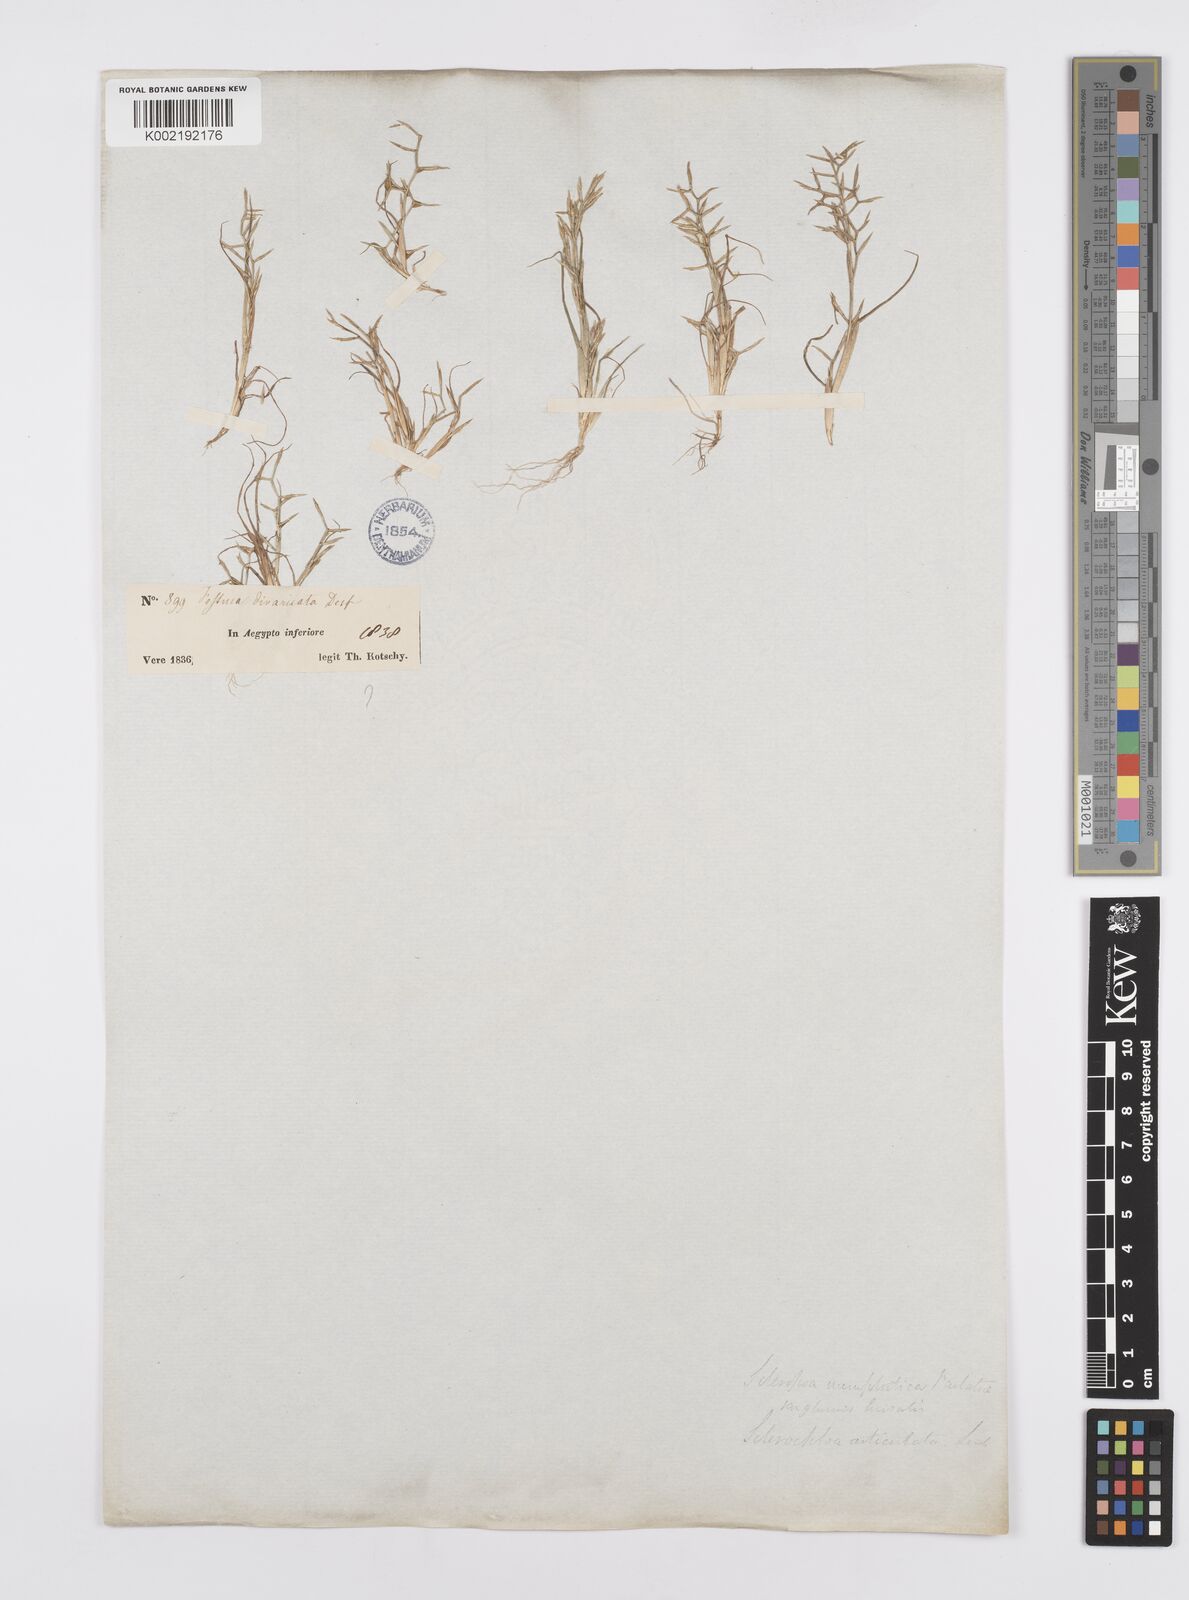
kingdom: Plantae
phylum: Tracheophyta
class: Liliopsida
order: Poales
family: Poaceae
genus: Cutandia
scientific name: Cutandia dichotoma
